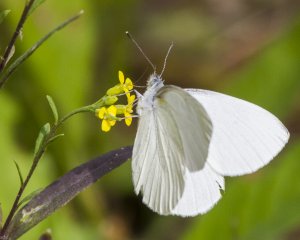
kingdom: Animalia
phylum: Arthropoda
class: Insecta
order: Lepidoptera
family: Pieridae
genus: Pieris
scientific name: Pieris oleracea
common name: Mustard White
